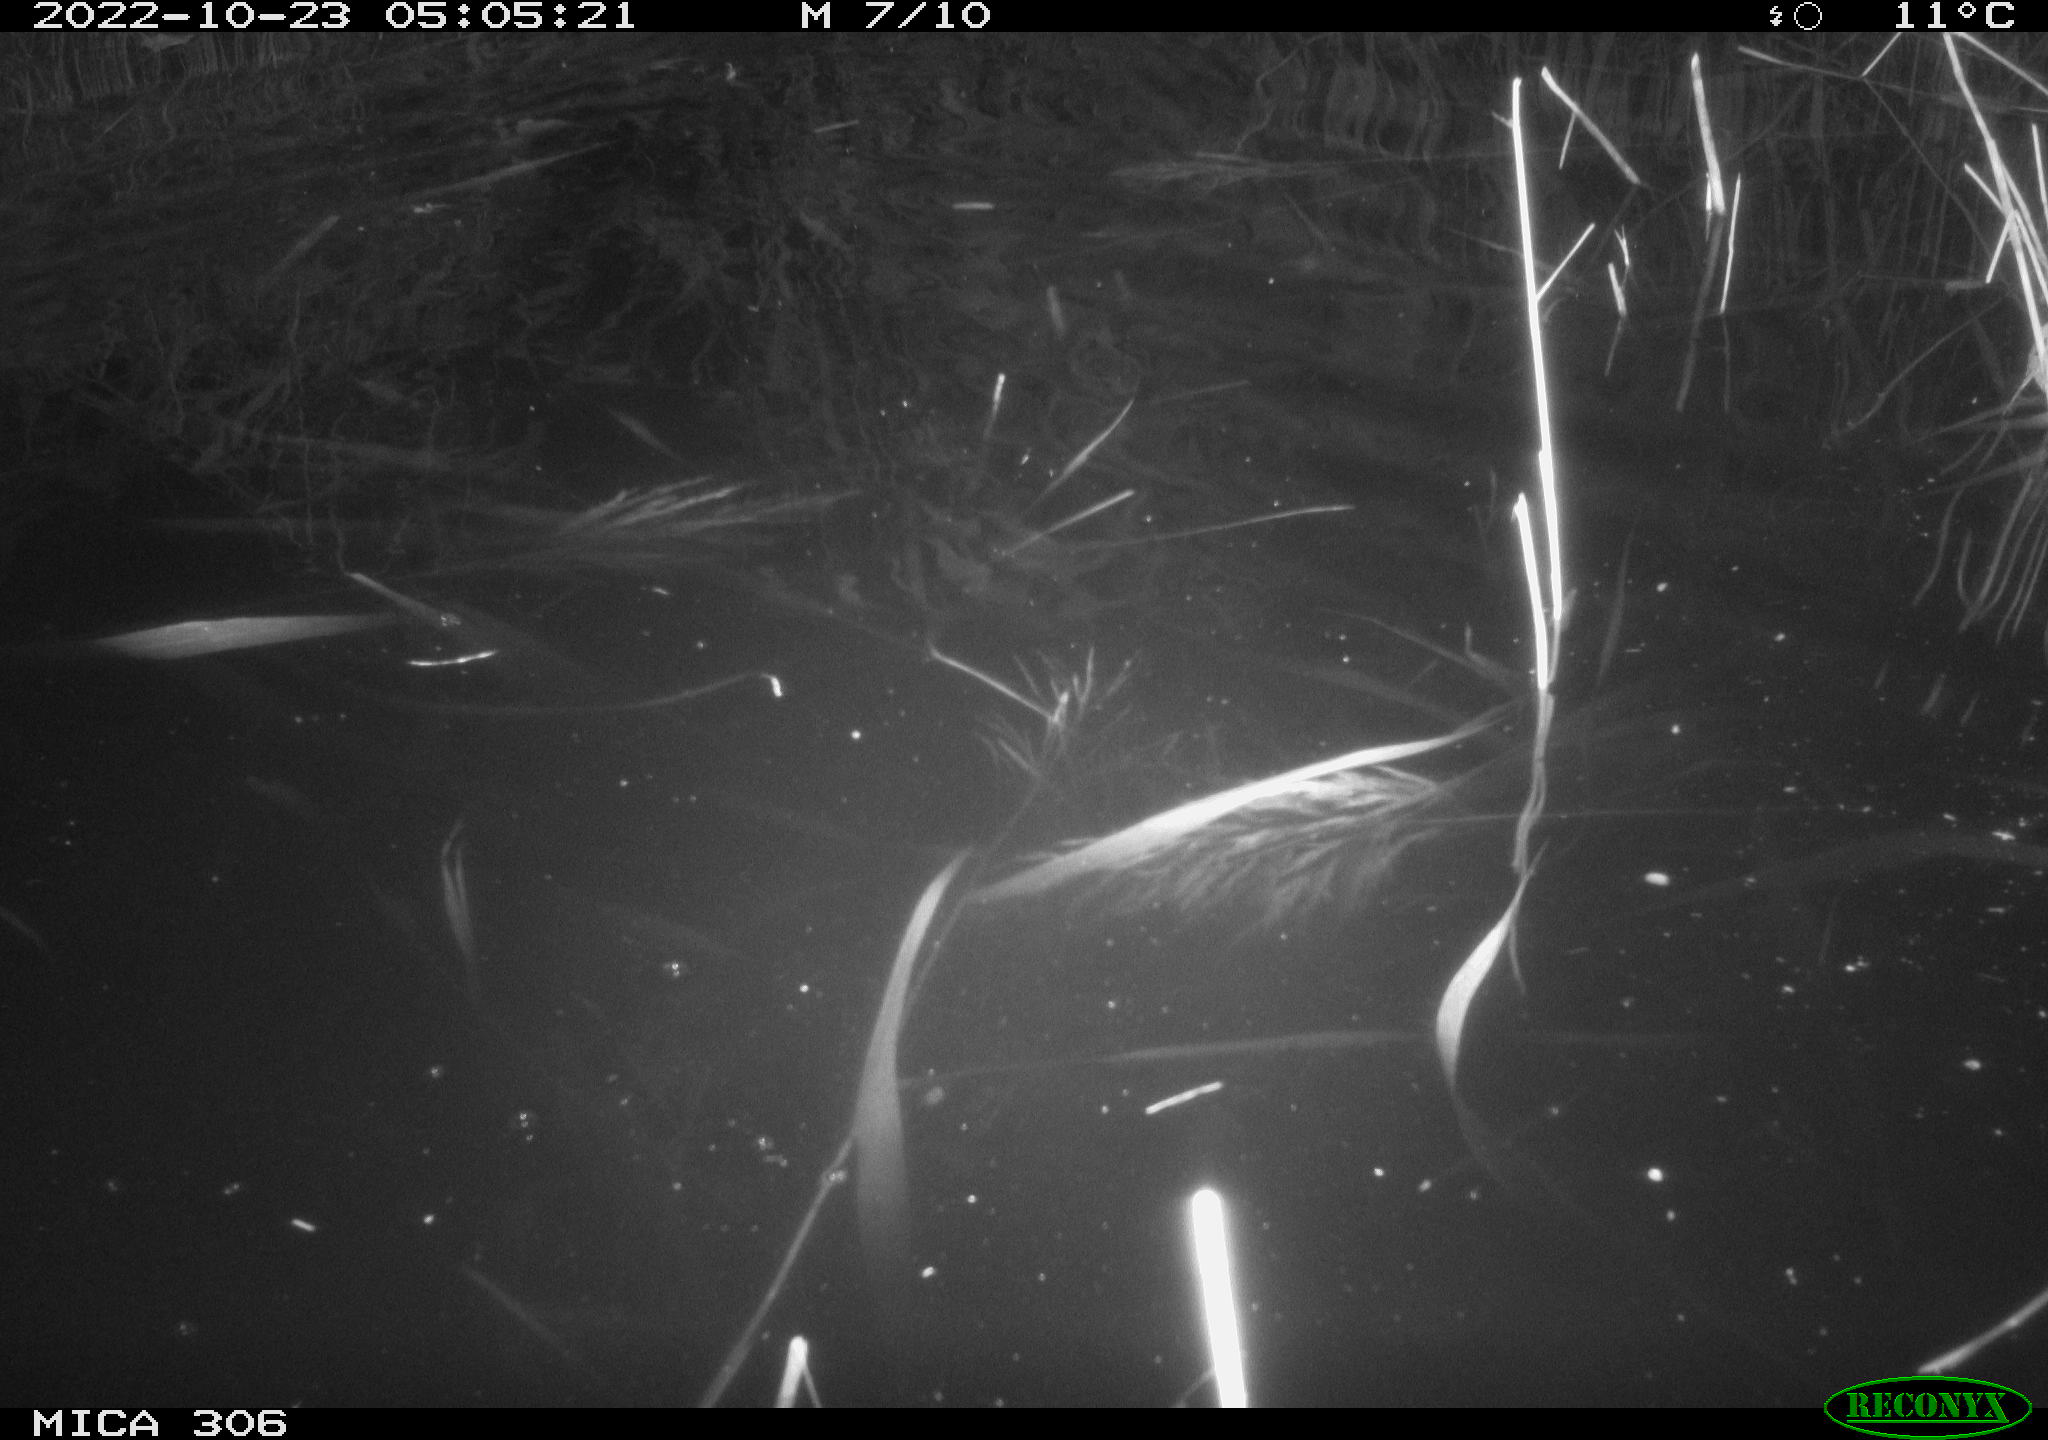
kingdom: Animalia
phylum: Chordata
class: Mammalia
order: Rodentia
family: Muridae
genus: Rattus
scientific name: Rattus norvegicus
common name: Brown rat
